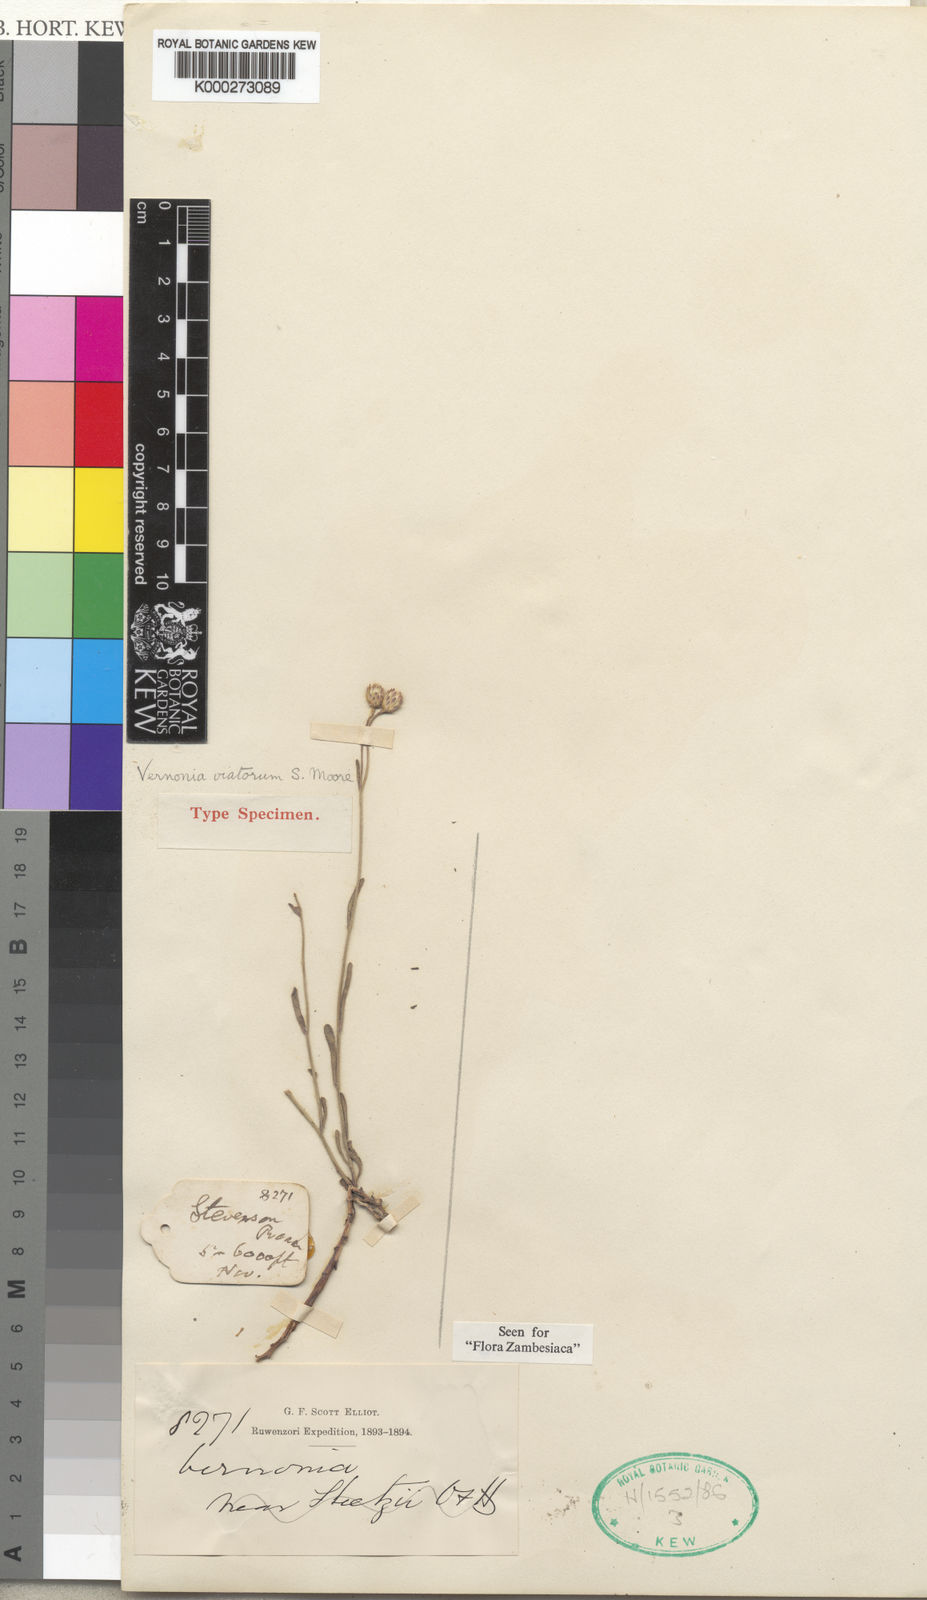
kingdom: Plantae
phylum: Tracheophyta
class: Magnoliopsida
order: Asterales
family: Asteraceae
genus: Vernoniastrum
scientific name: Vernoniastrum viatorum
